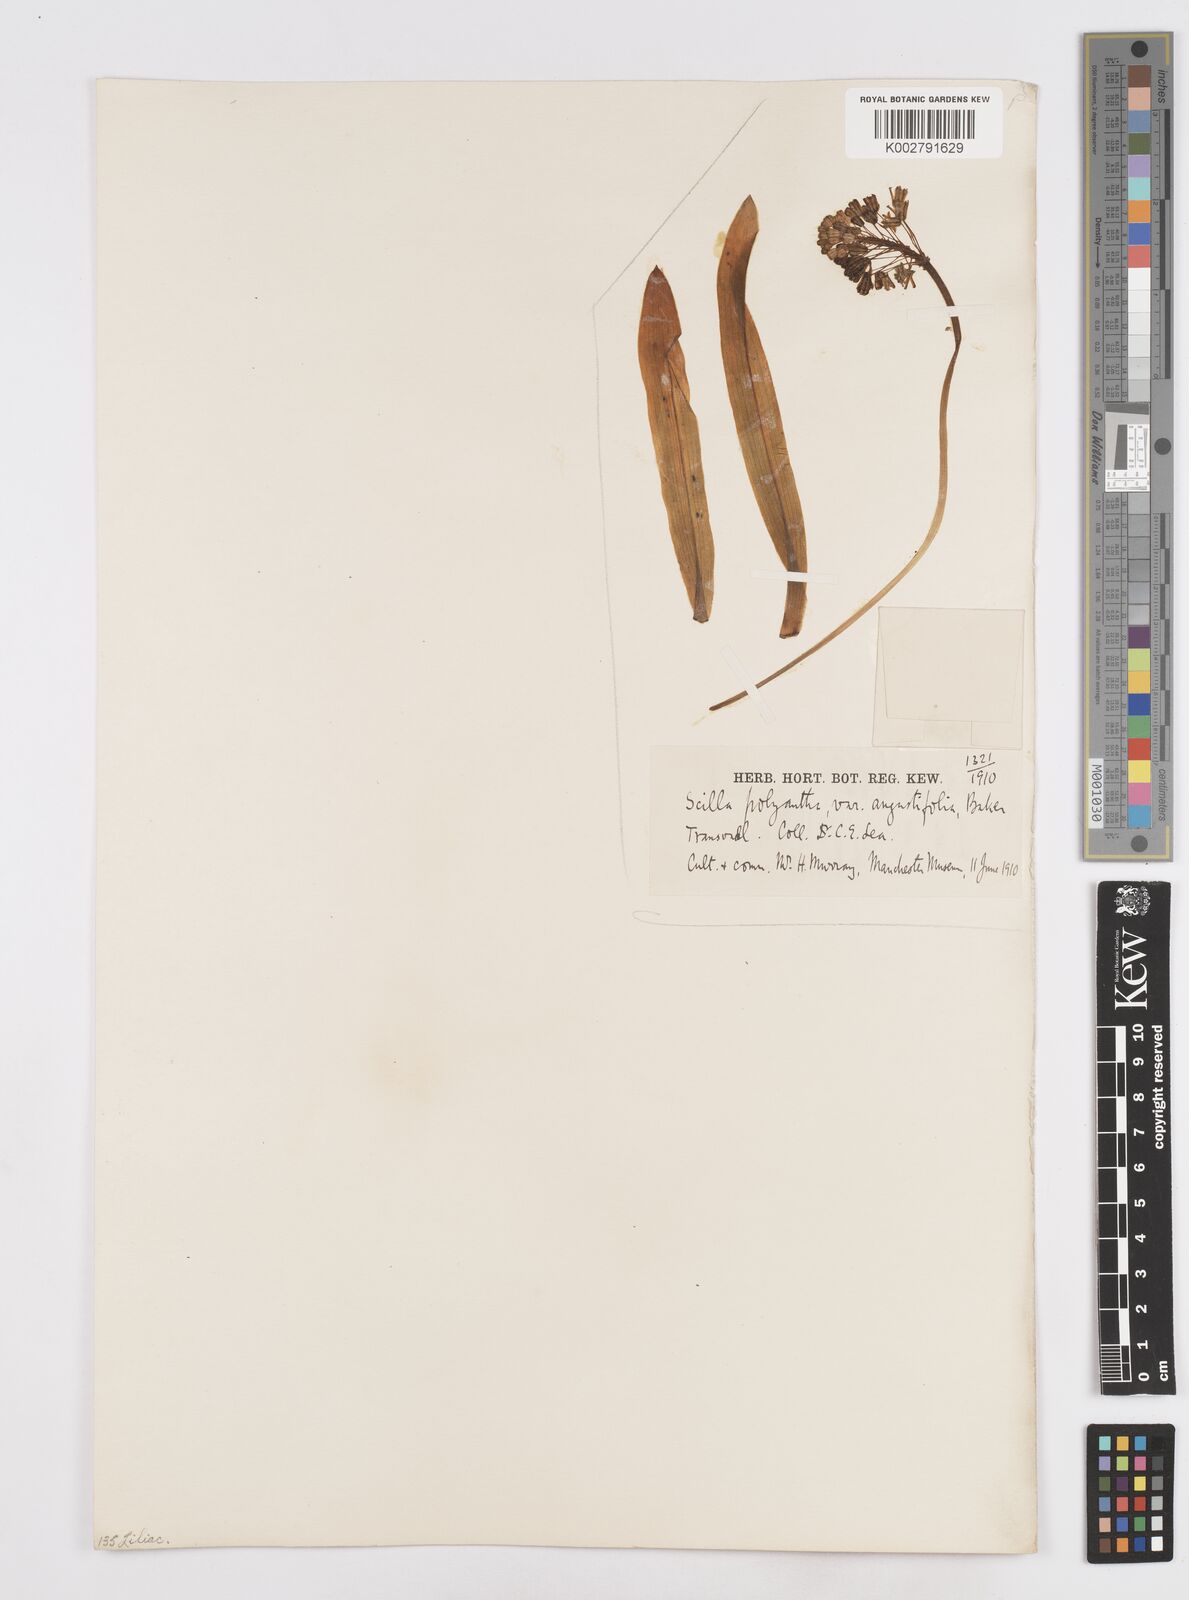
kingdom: Plantae
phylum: Tracheophyta
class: Liliopsida
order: Asparagales
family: Asparagaceae
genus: Scilla
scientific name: Scilla
